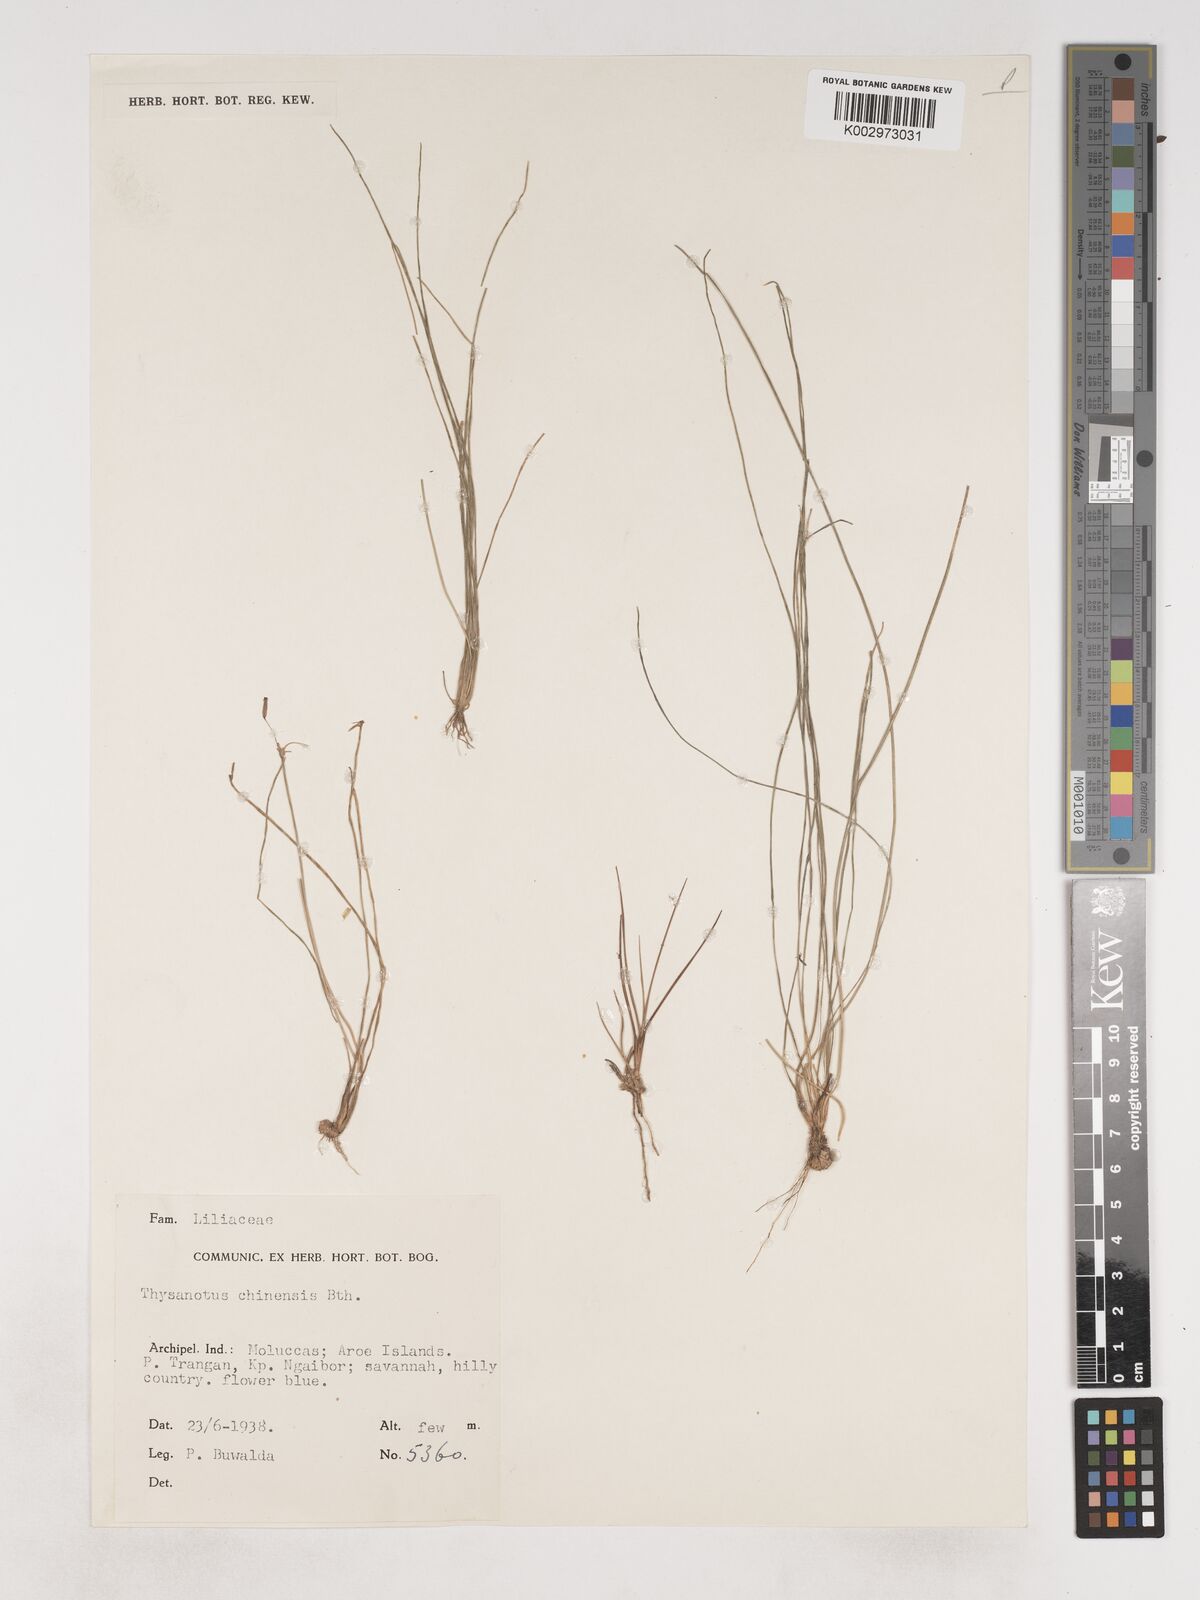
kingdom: Plantae
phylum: Tracheophyta
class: Liliopsida
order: Asparagales
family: Asparagaceae
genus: Thysanotus
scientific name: Thysanotus chinensis
